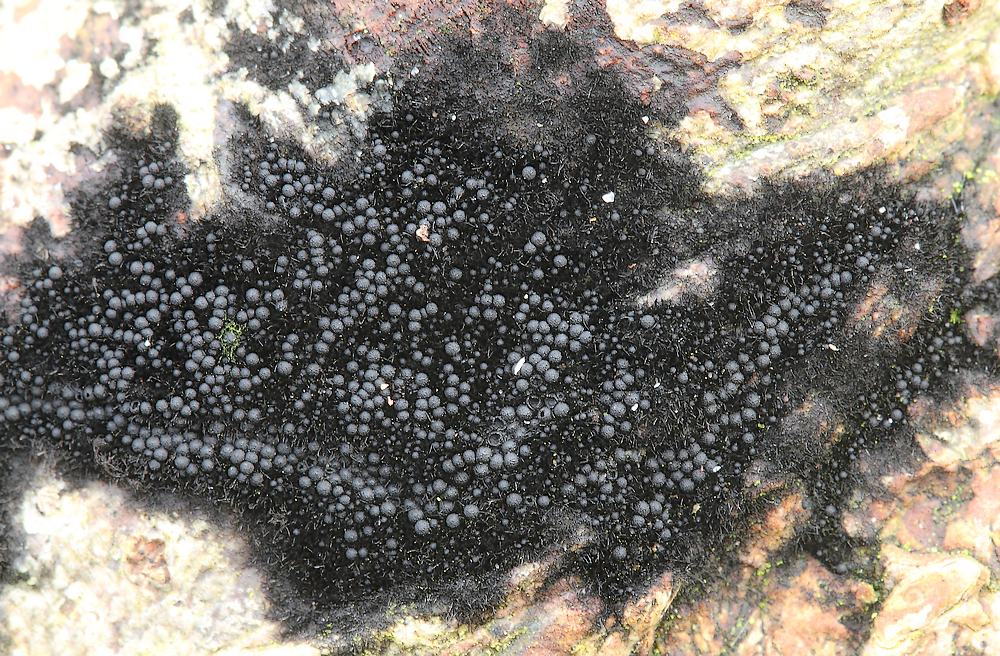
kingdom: Fungi
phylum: Ascomycota
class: Sordariomycetes
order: Coronophorales
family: Chaetosphaerellaceae
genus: Chaetosphaerella
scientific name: Chaetosphaerella phaeostroma
